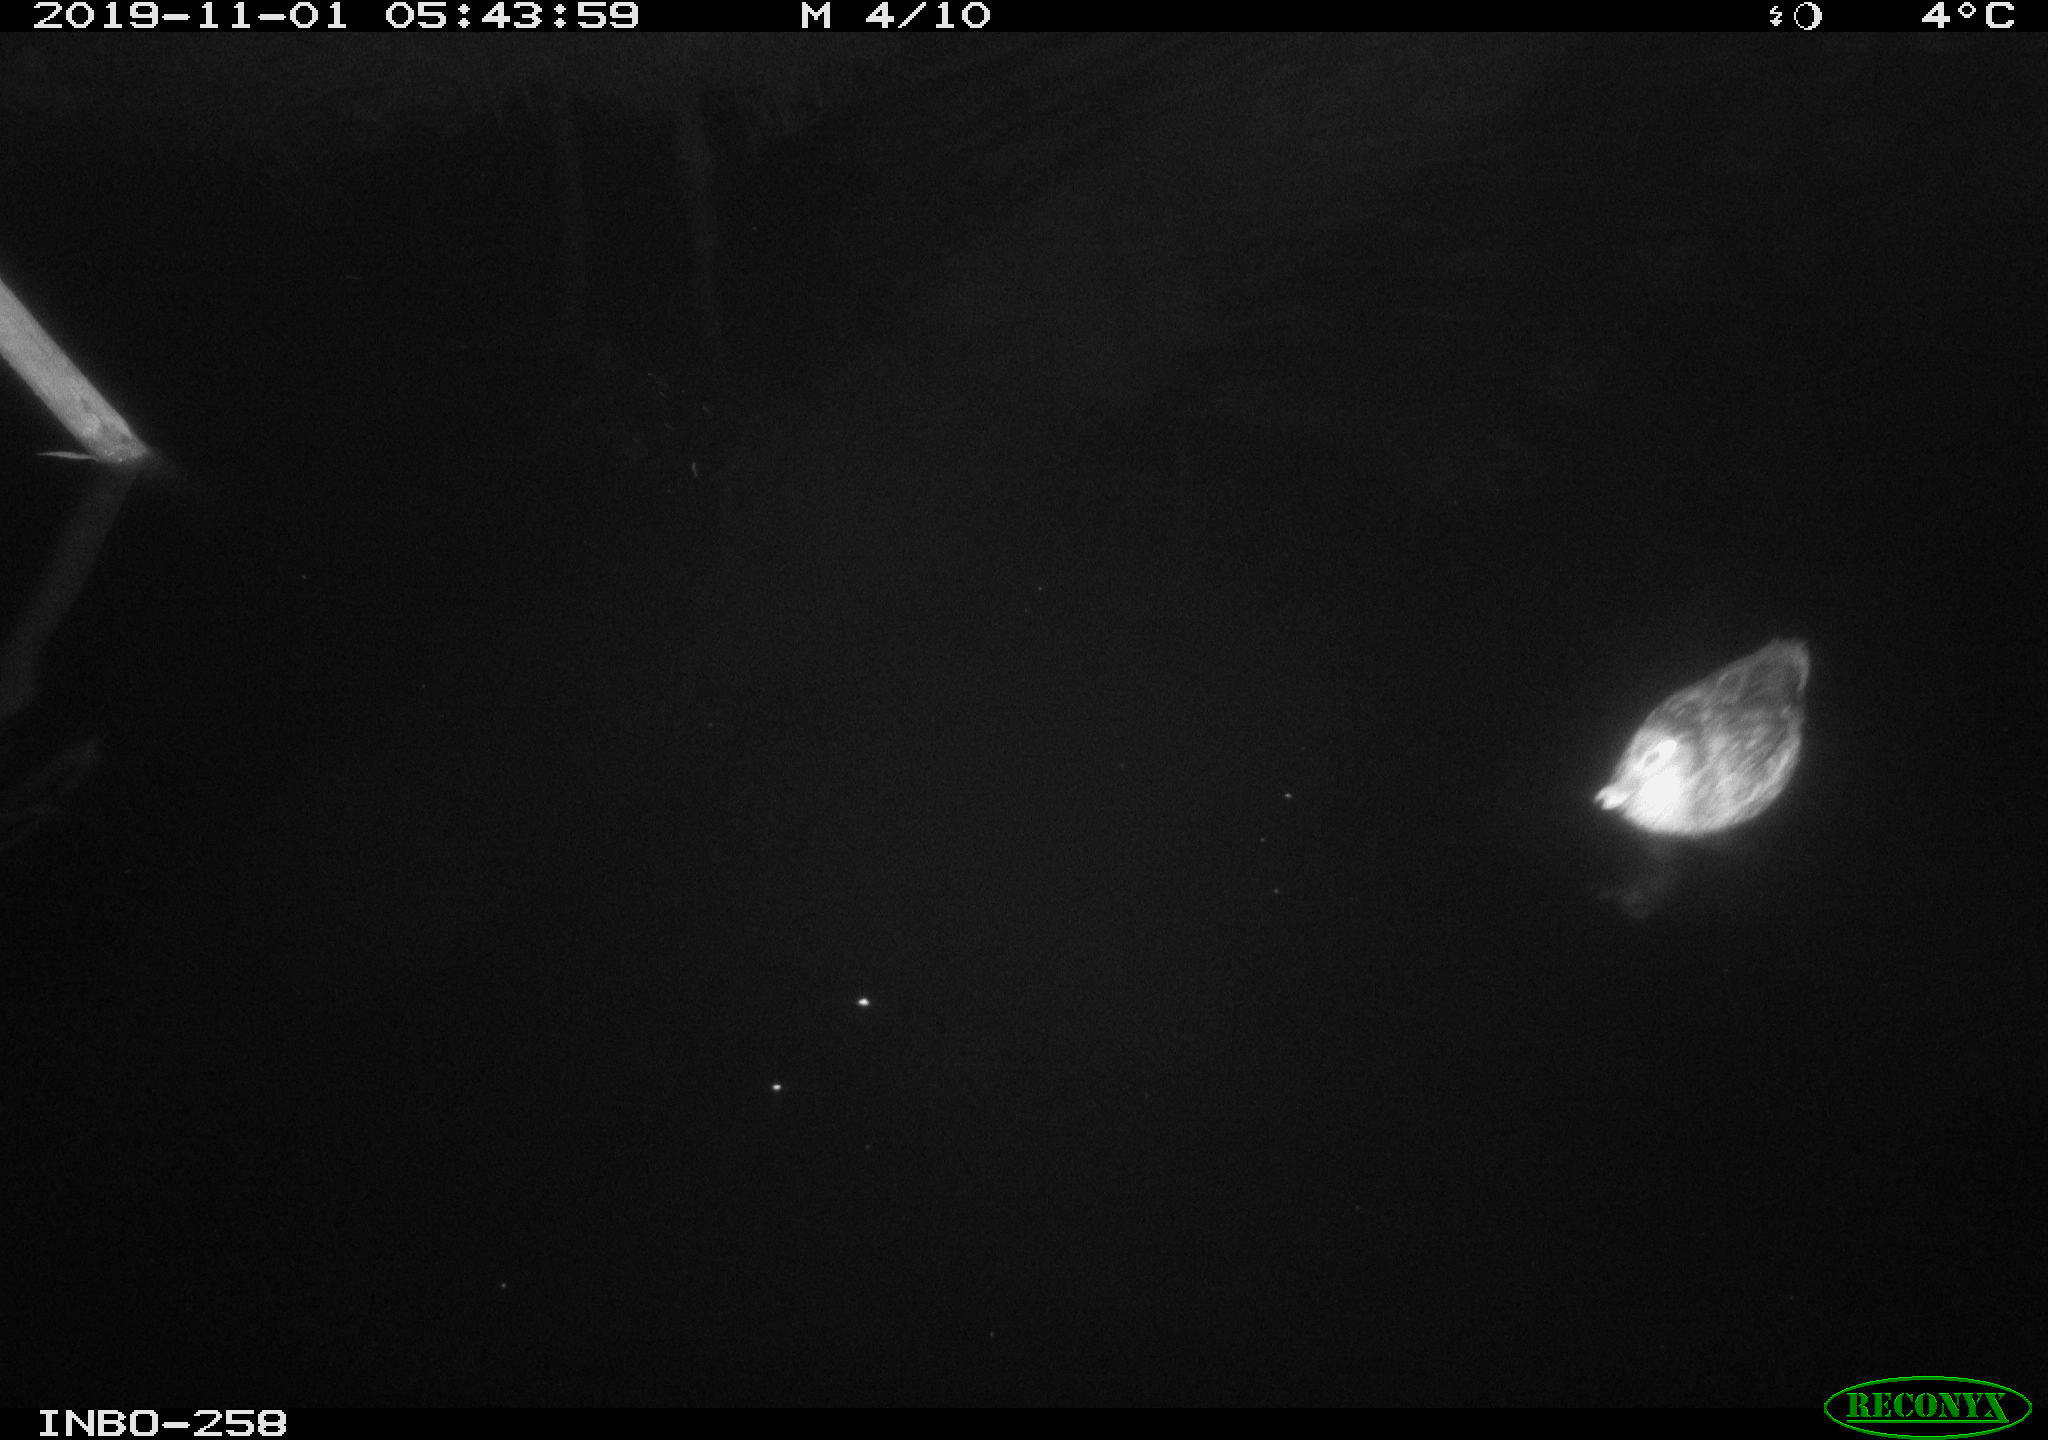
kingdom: Animalia
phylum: Chordata
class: Aves
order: Anseriformes
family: Anatidae
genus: Anas
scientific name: Anas platyrhynchos
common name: Mallard
